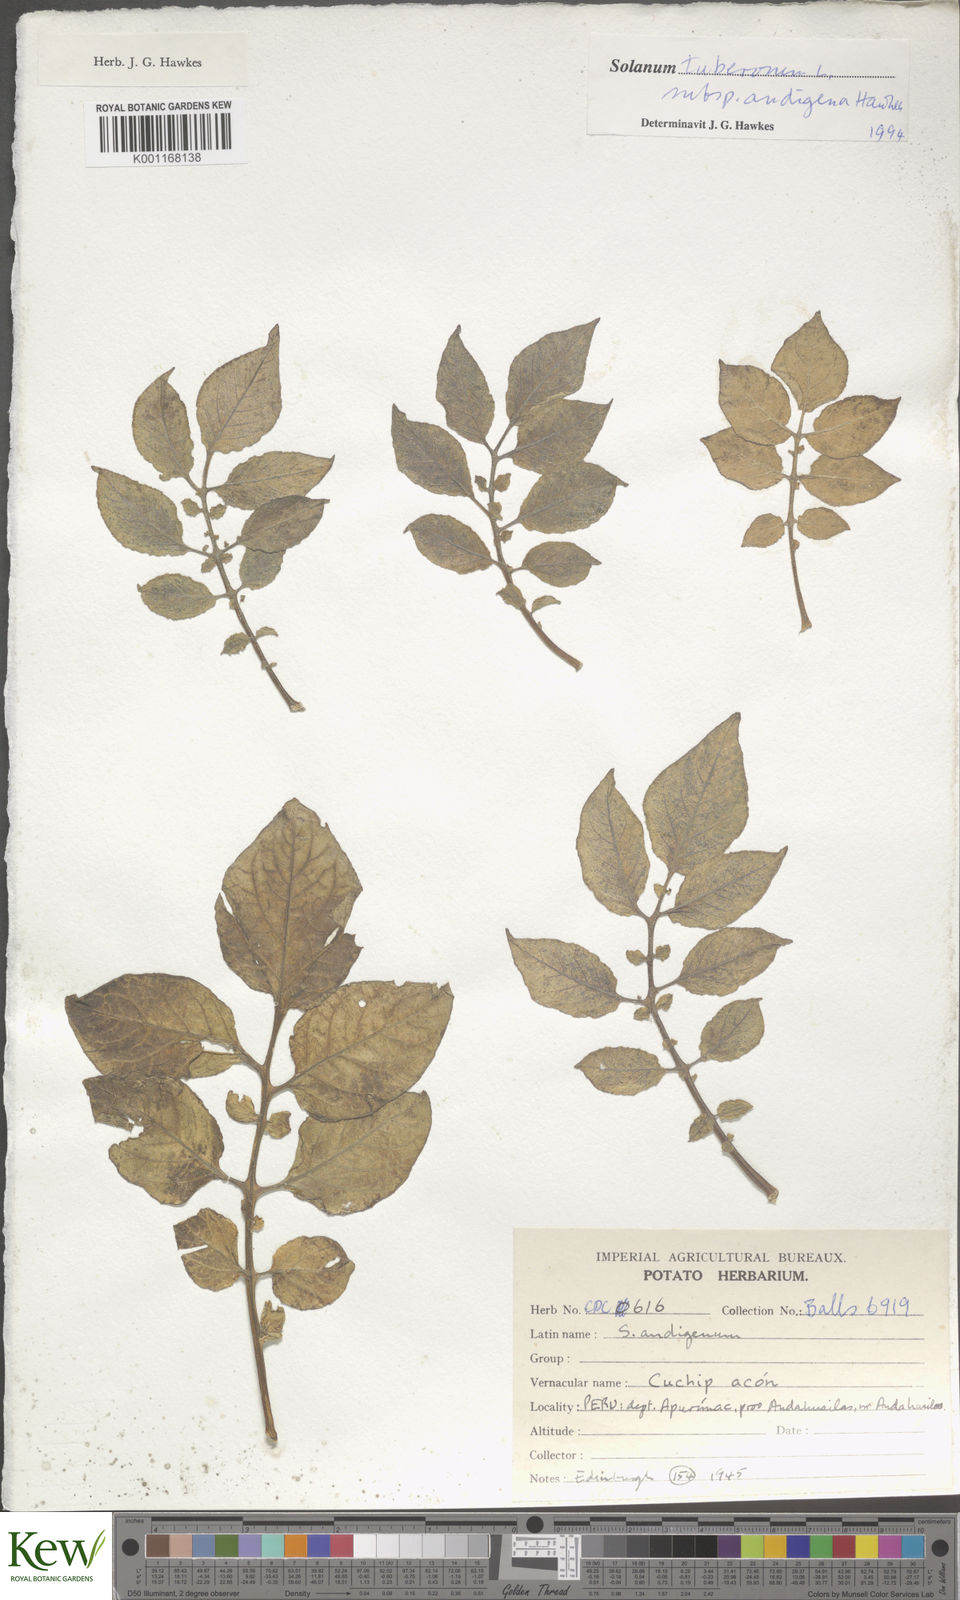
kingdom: Plantae
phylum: Tracheophyta
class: Magnoliopsida
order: Solanales
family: Solanaceae
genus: Solanum
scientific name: Solanum tuberosum
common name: Potato
